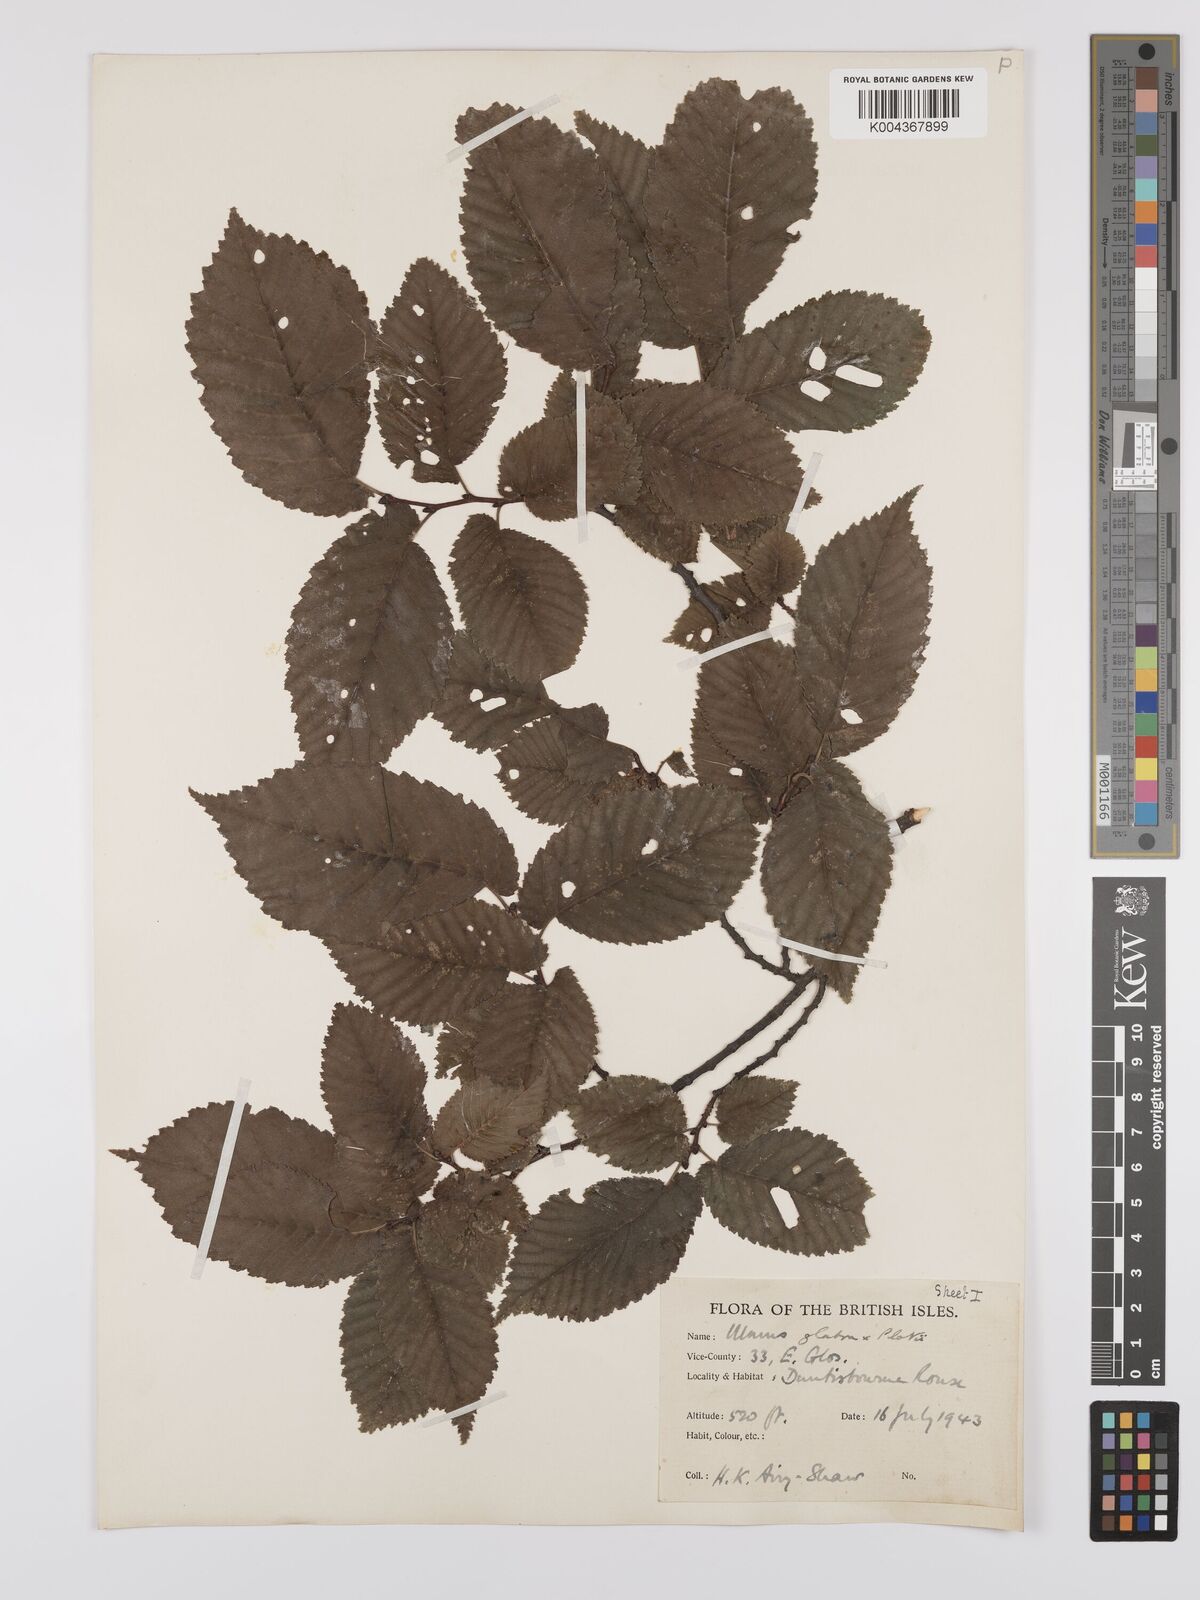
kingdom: Plantae
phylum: Tracheophyta
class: Magnoliopsida
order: Rosales
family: Ulmaceae
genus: Ulmus
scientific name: Ulmus glabra
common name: Wych elm
